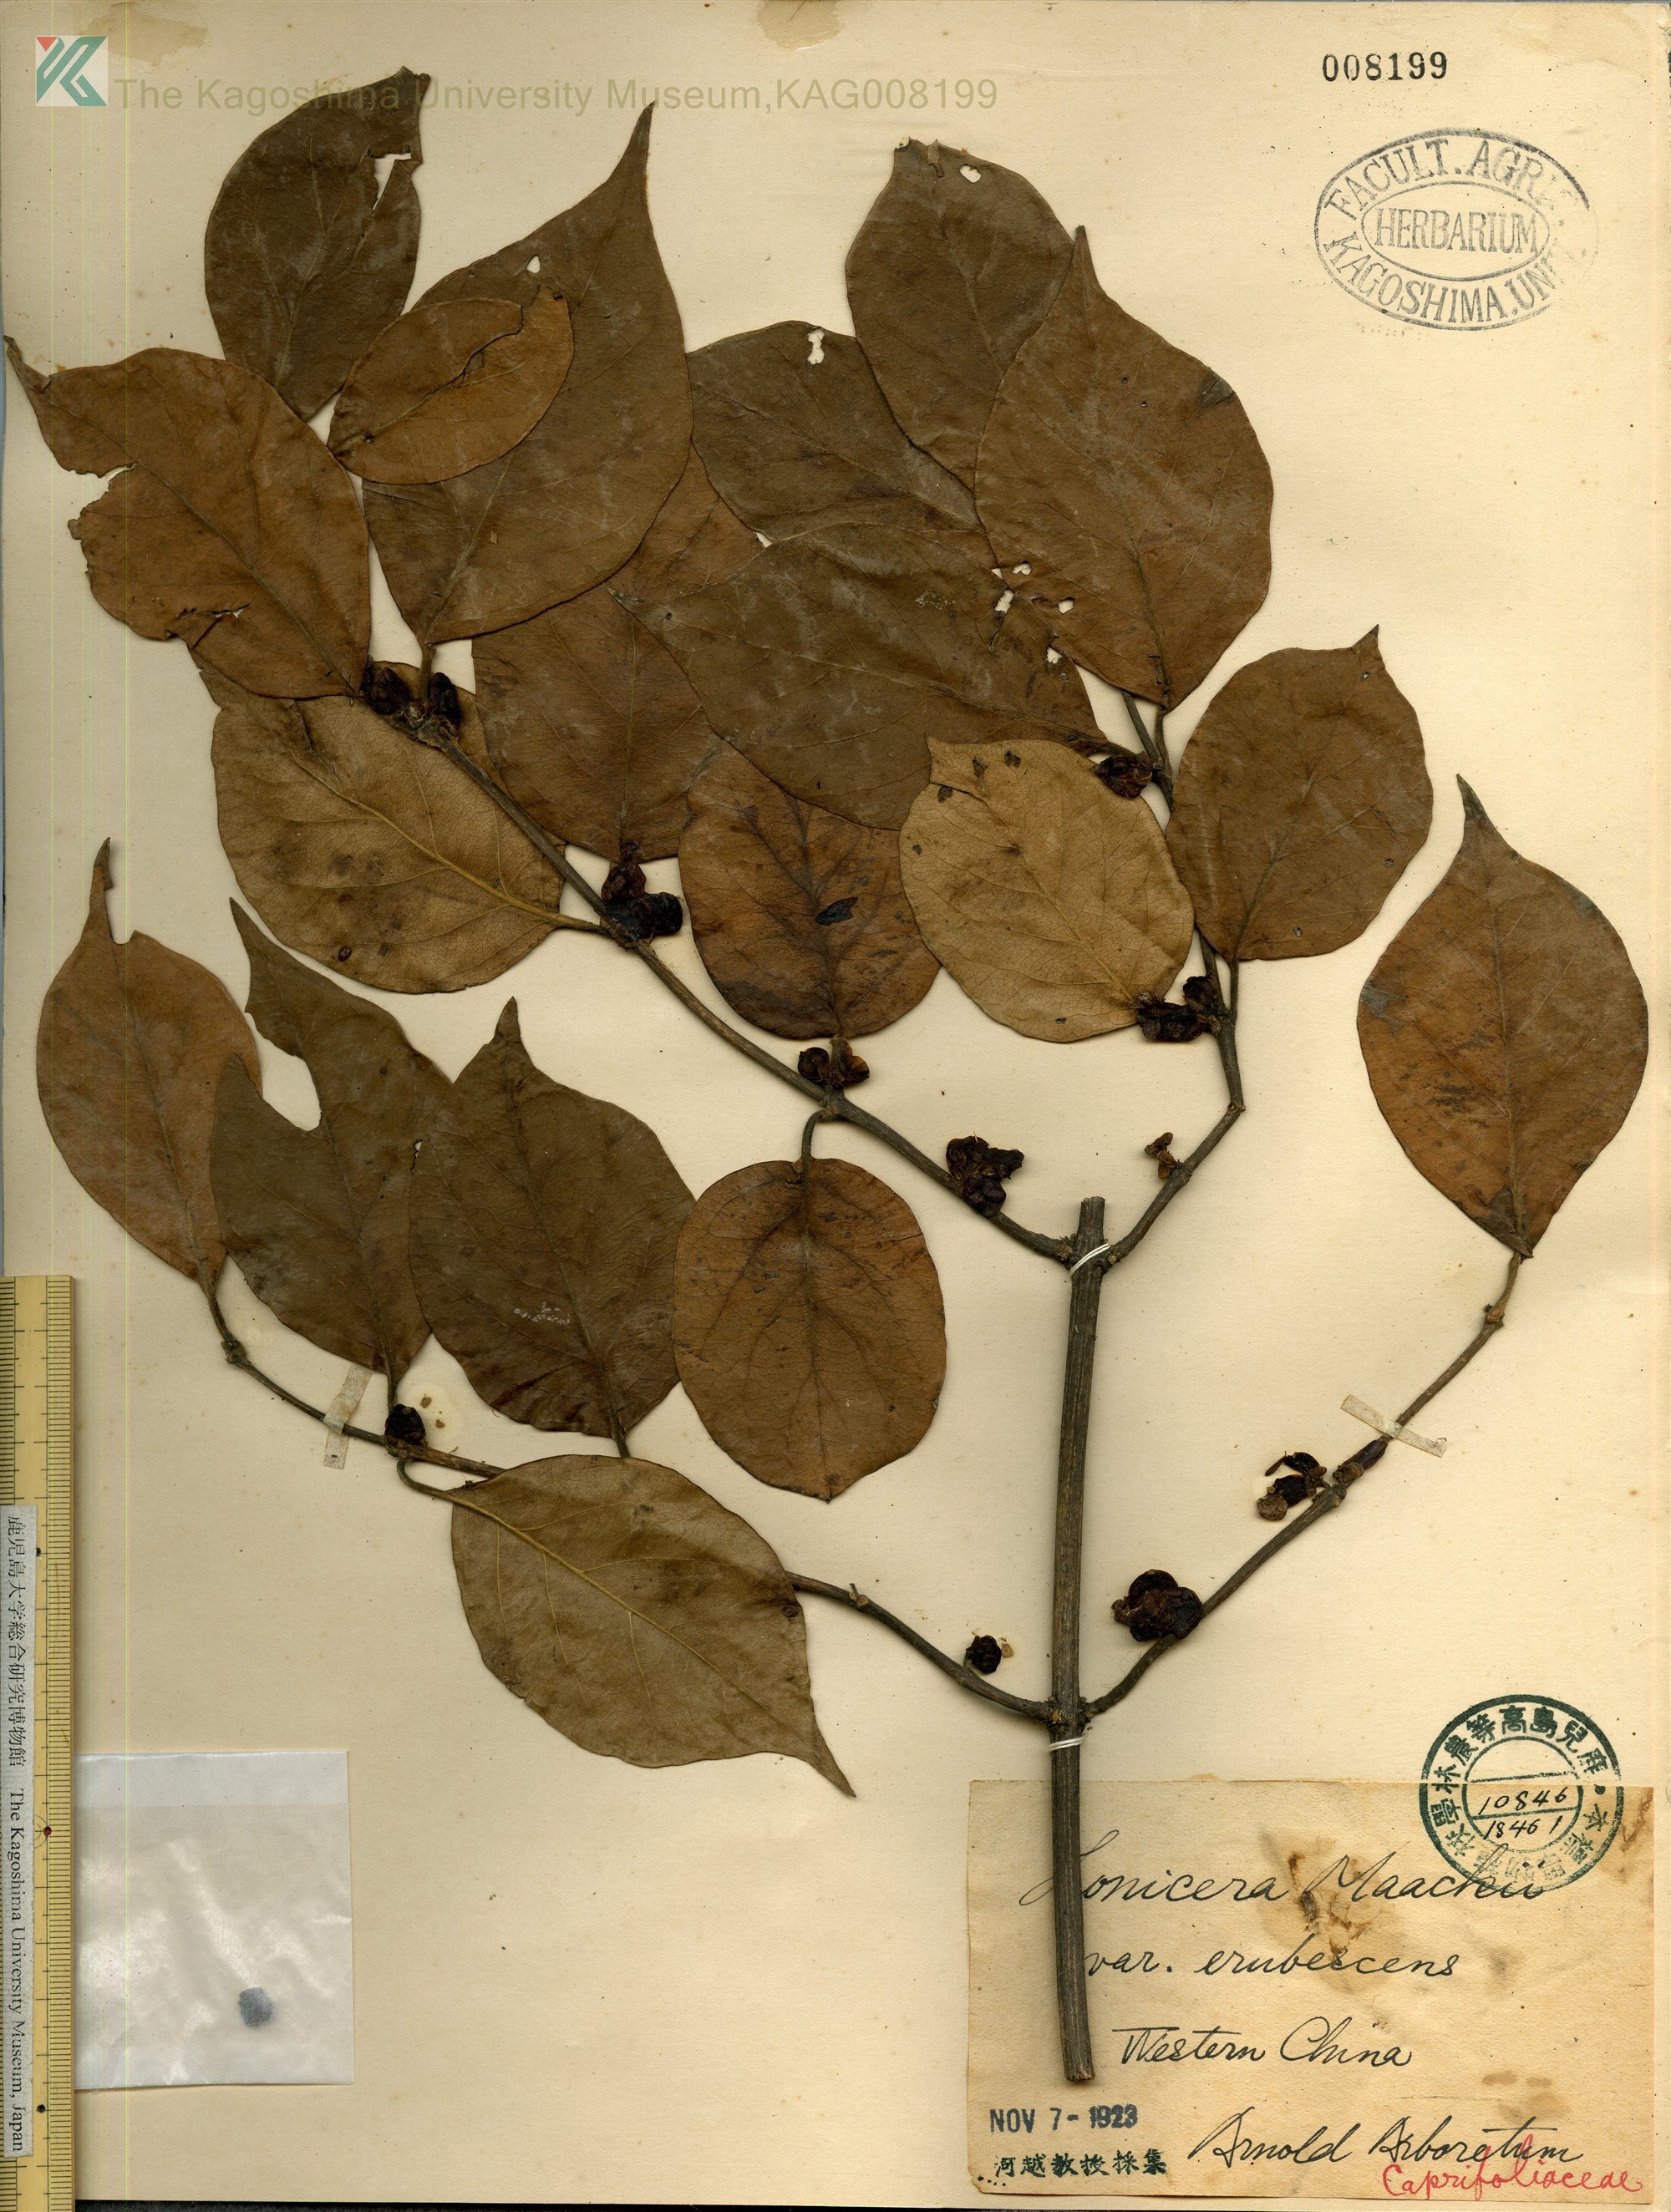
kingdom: Plantae
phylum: Tracheophyta
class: Magnoliopsida
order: Dipsacales
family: Caprifoliaceae
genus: Lonicera
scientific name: Lonicera maackii
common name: Amur honeysuckle
